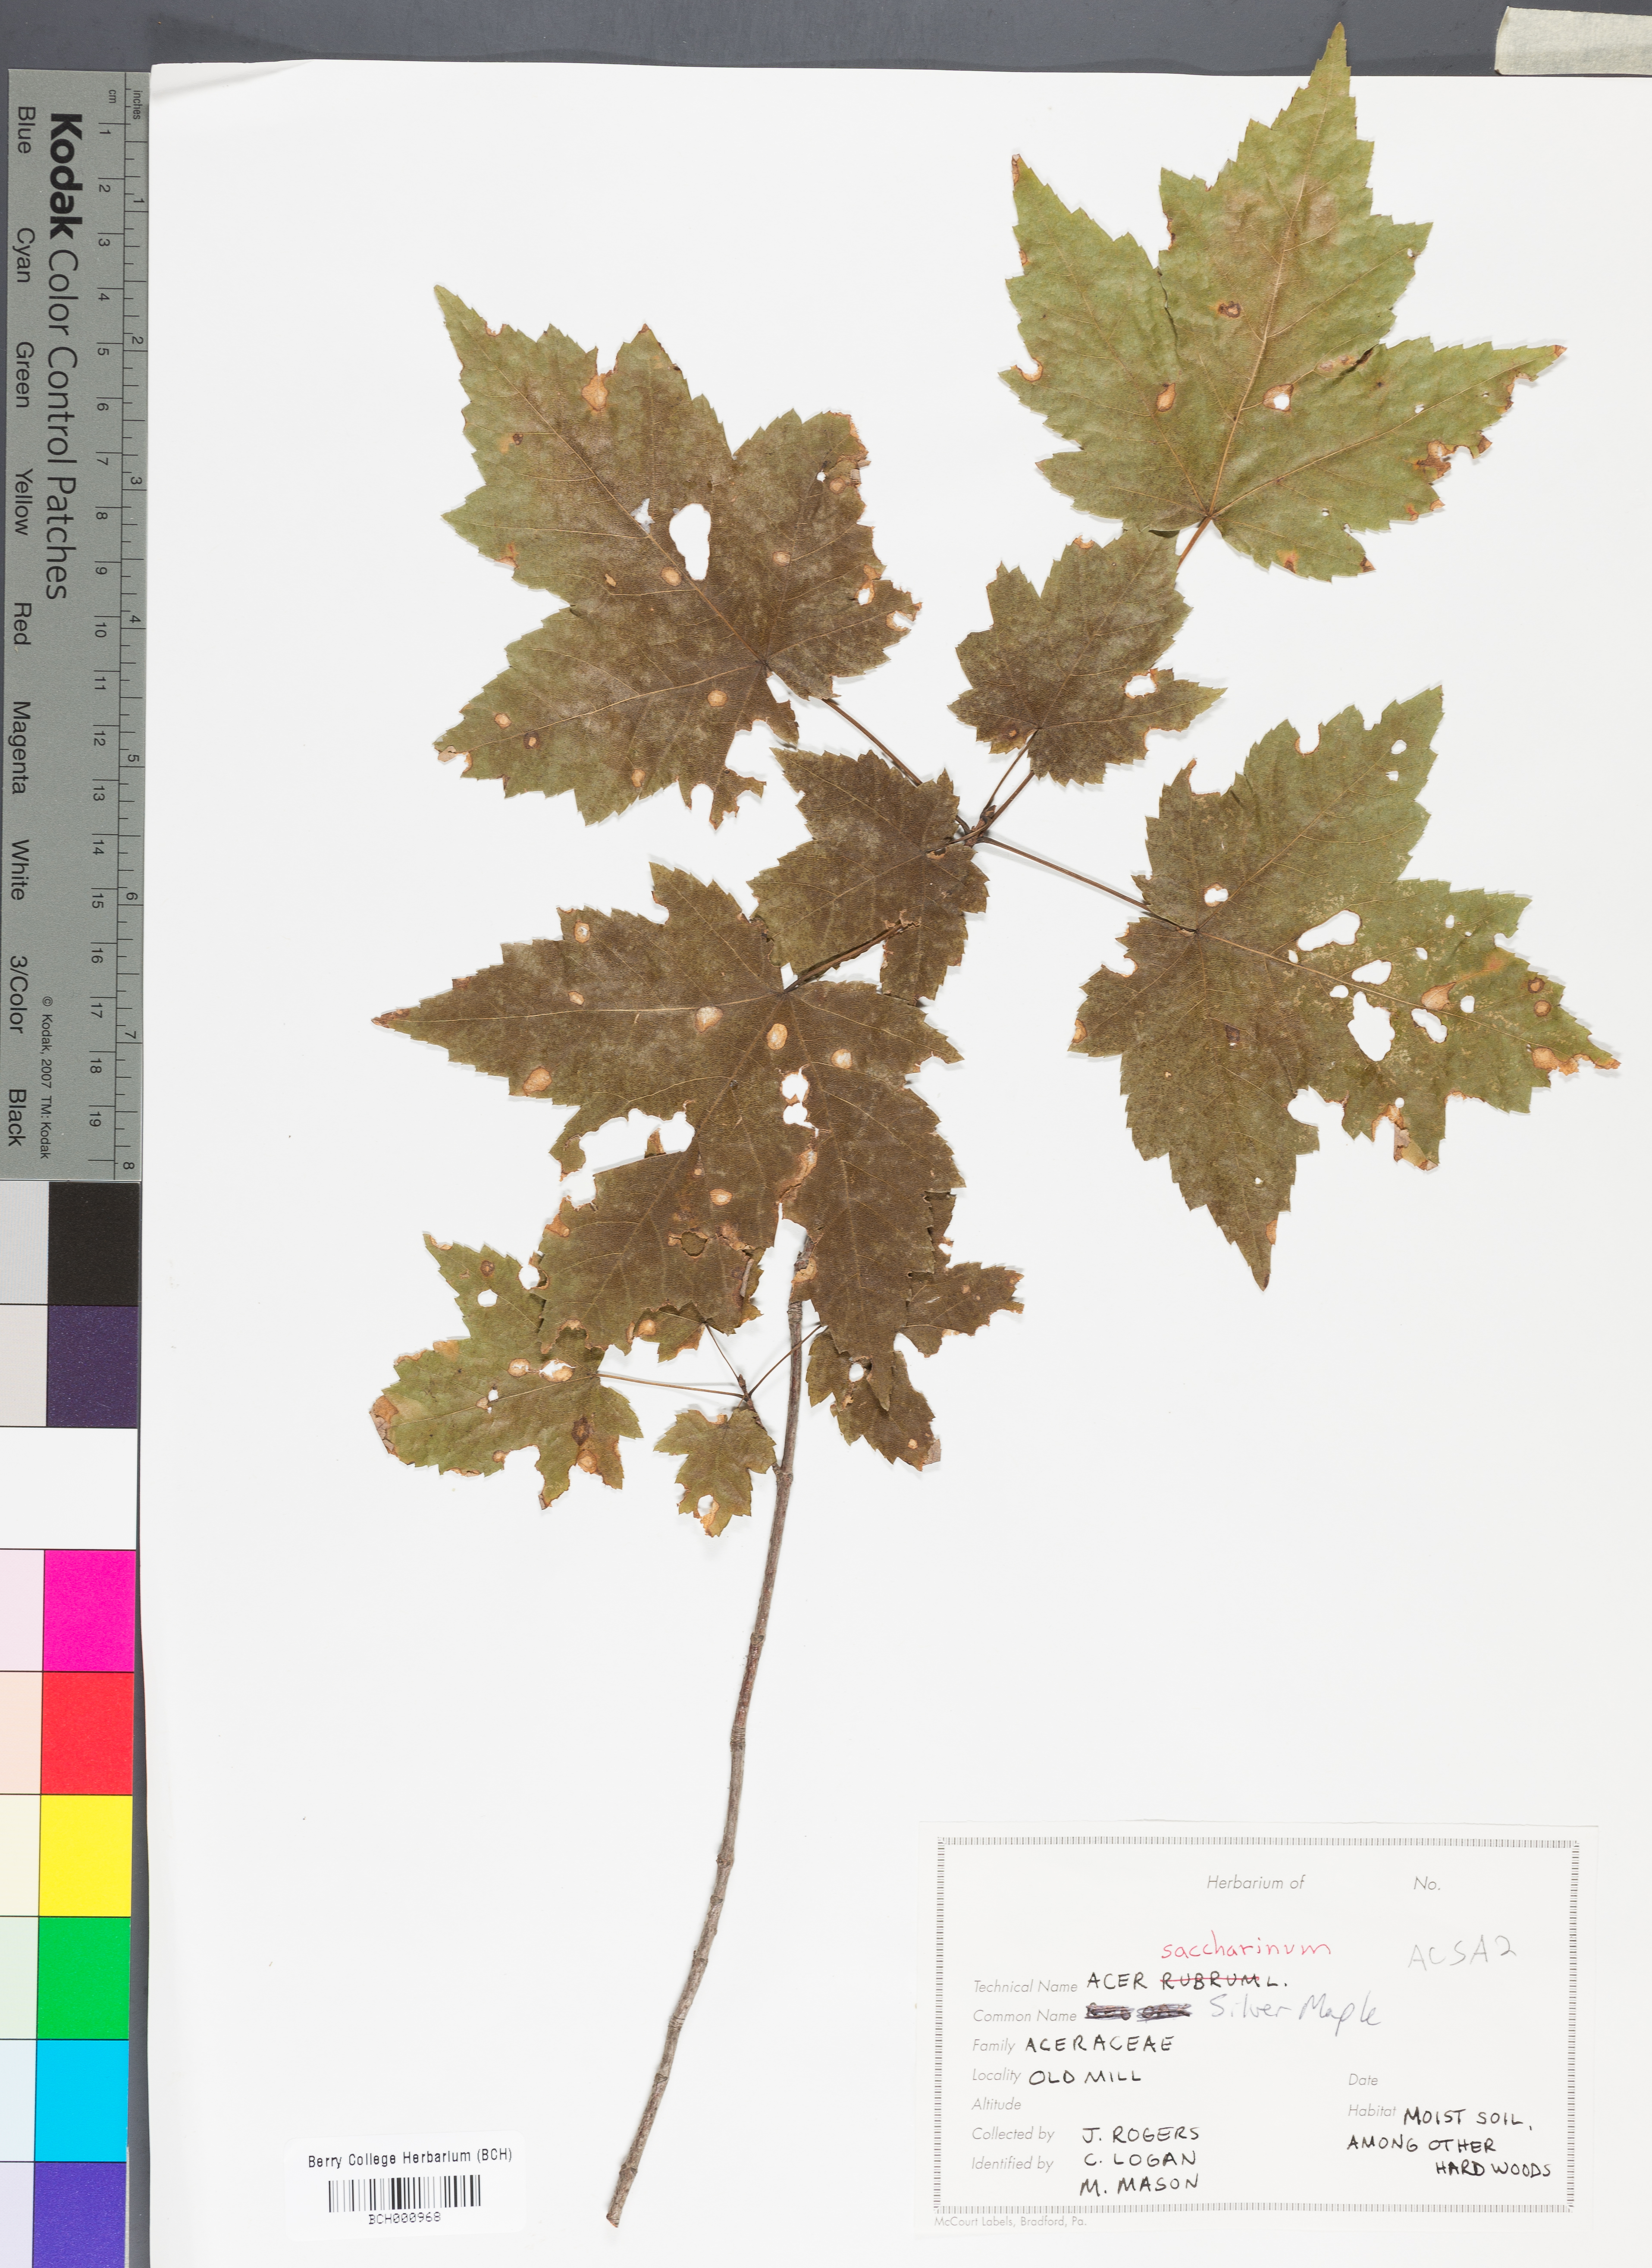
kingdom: Plantae
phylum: Tracheophyta
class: Magnoliopsida
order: Sapindales
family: Sapindaceae
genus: Acer
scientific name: Acer saccharinum
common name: Silver maple
